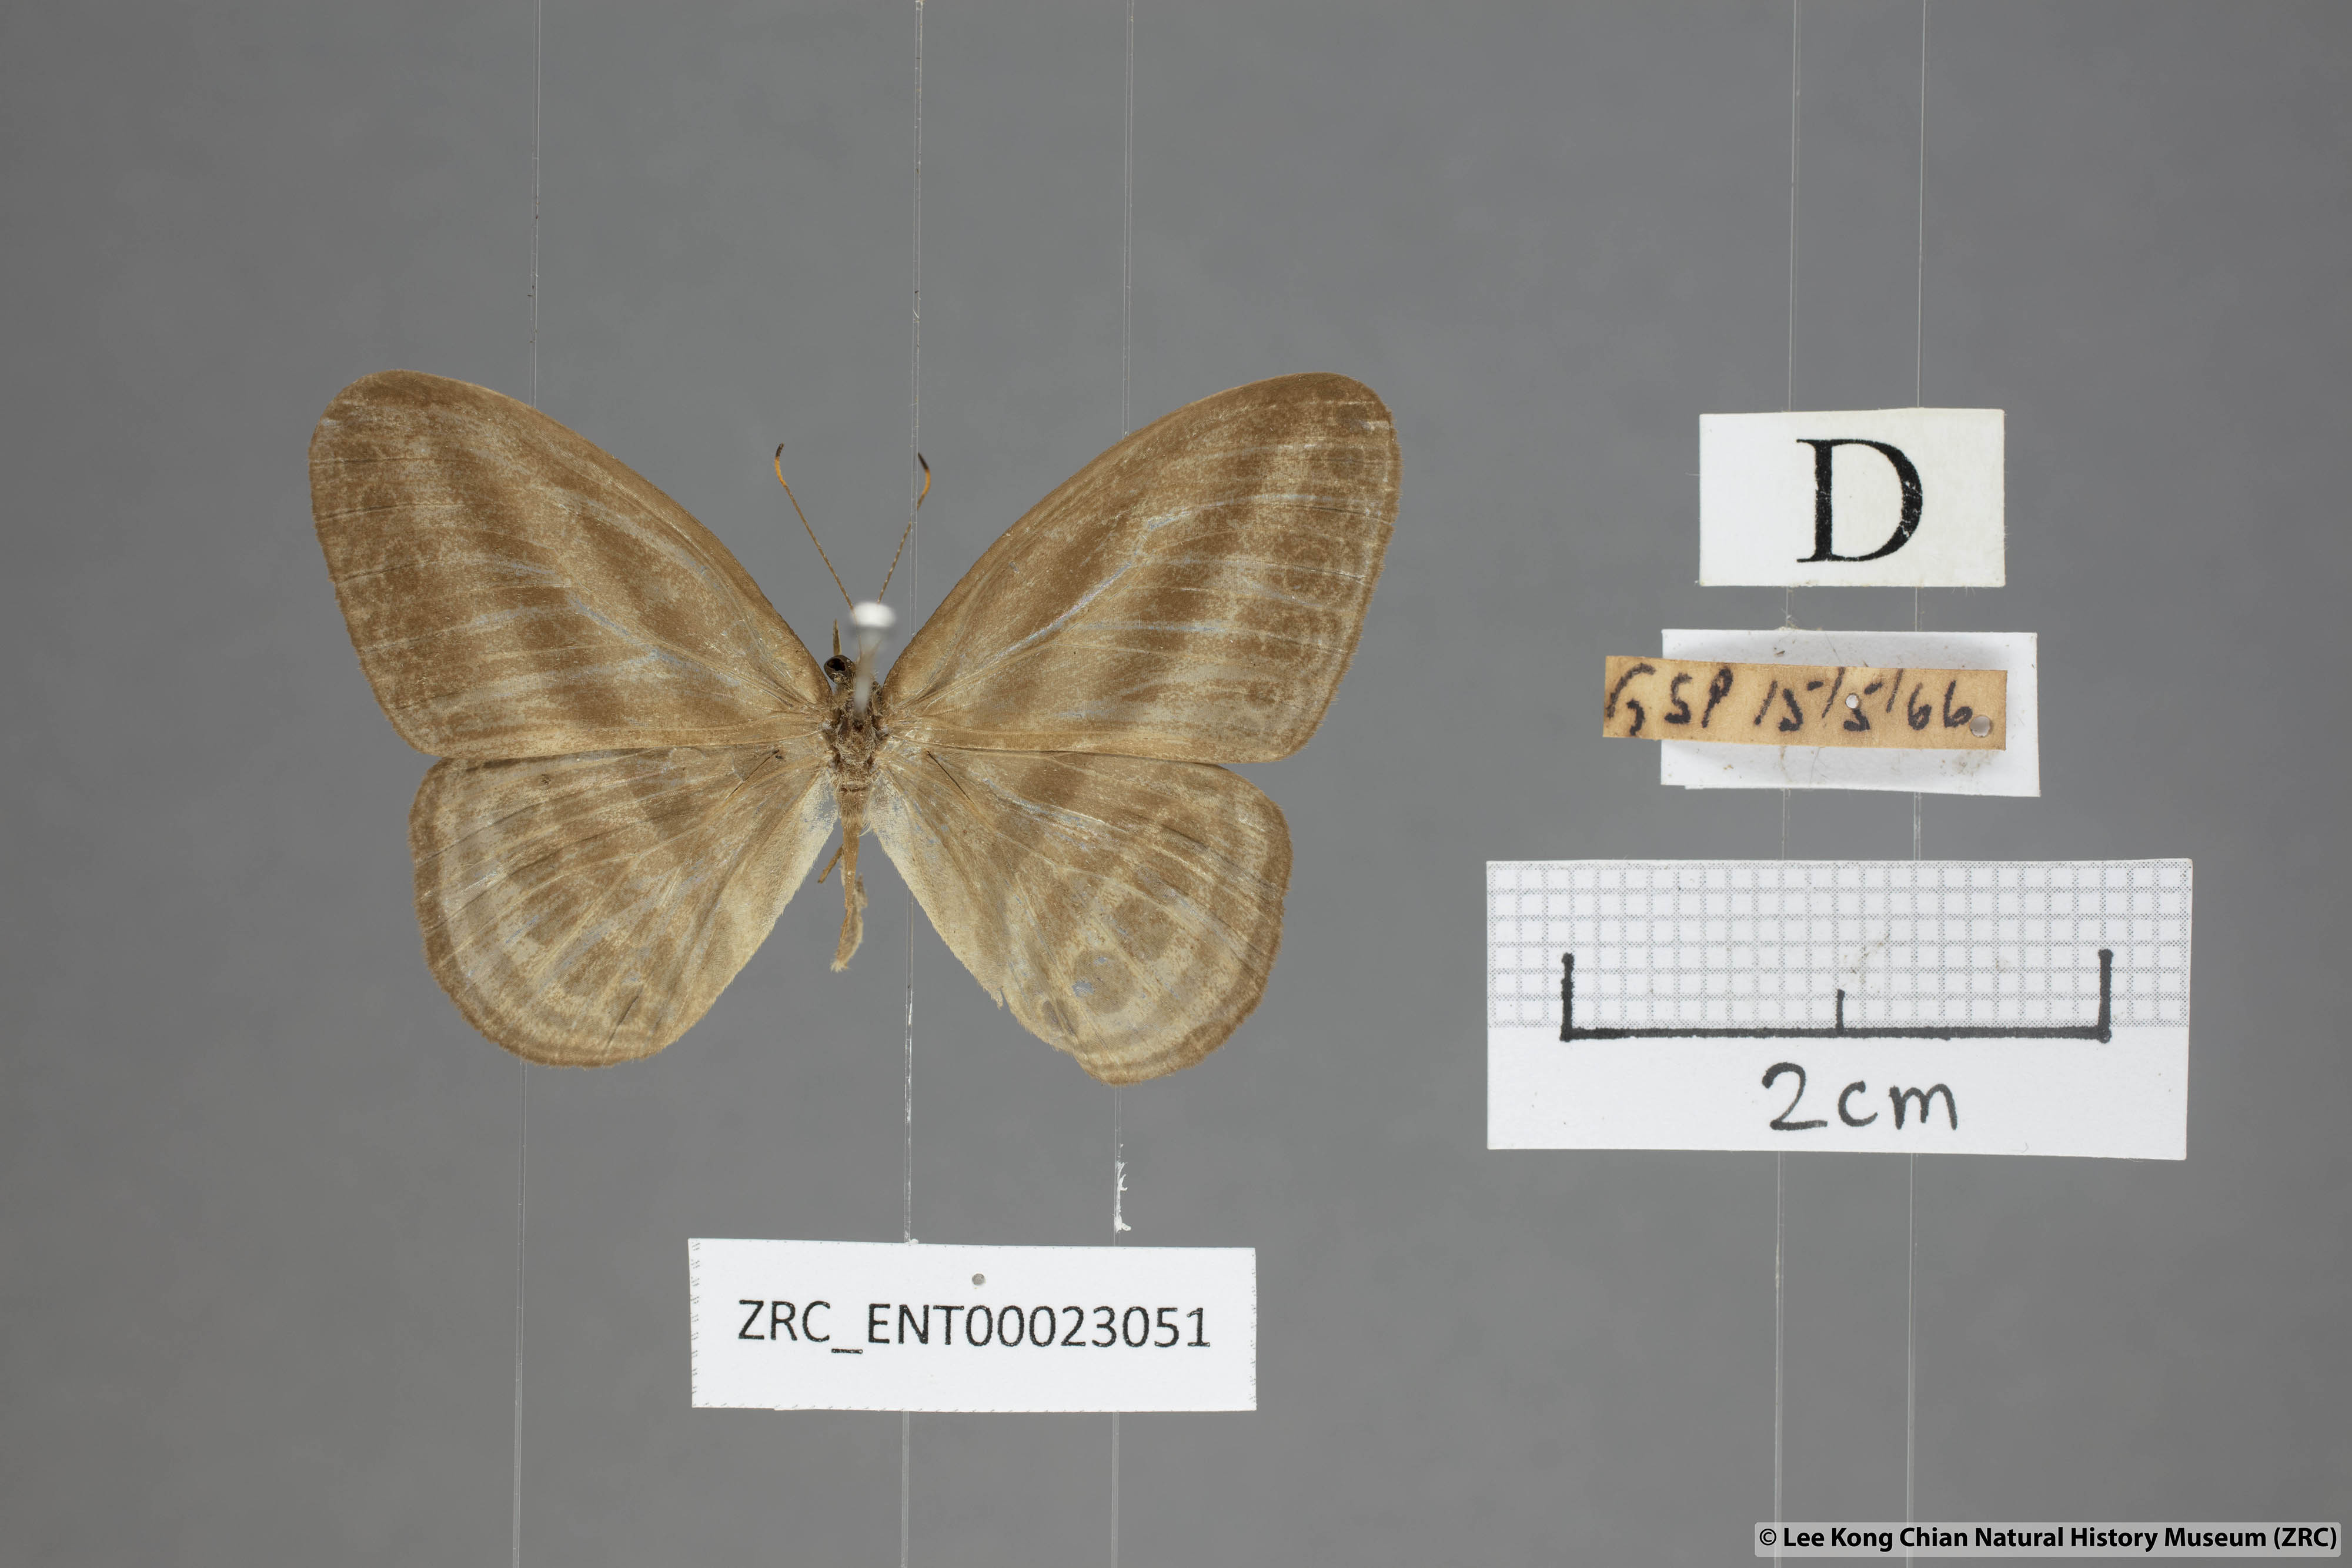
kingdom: Animalia
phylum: Arthropoda
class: Insecta
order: Lepidoptera
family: Nymphalidae
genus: Ragadia
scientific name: Ragadia makata
